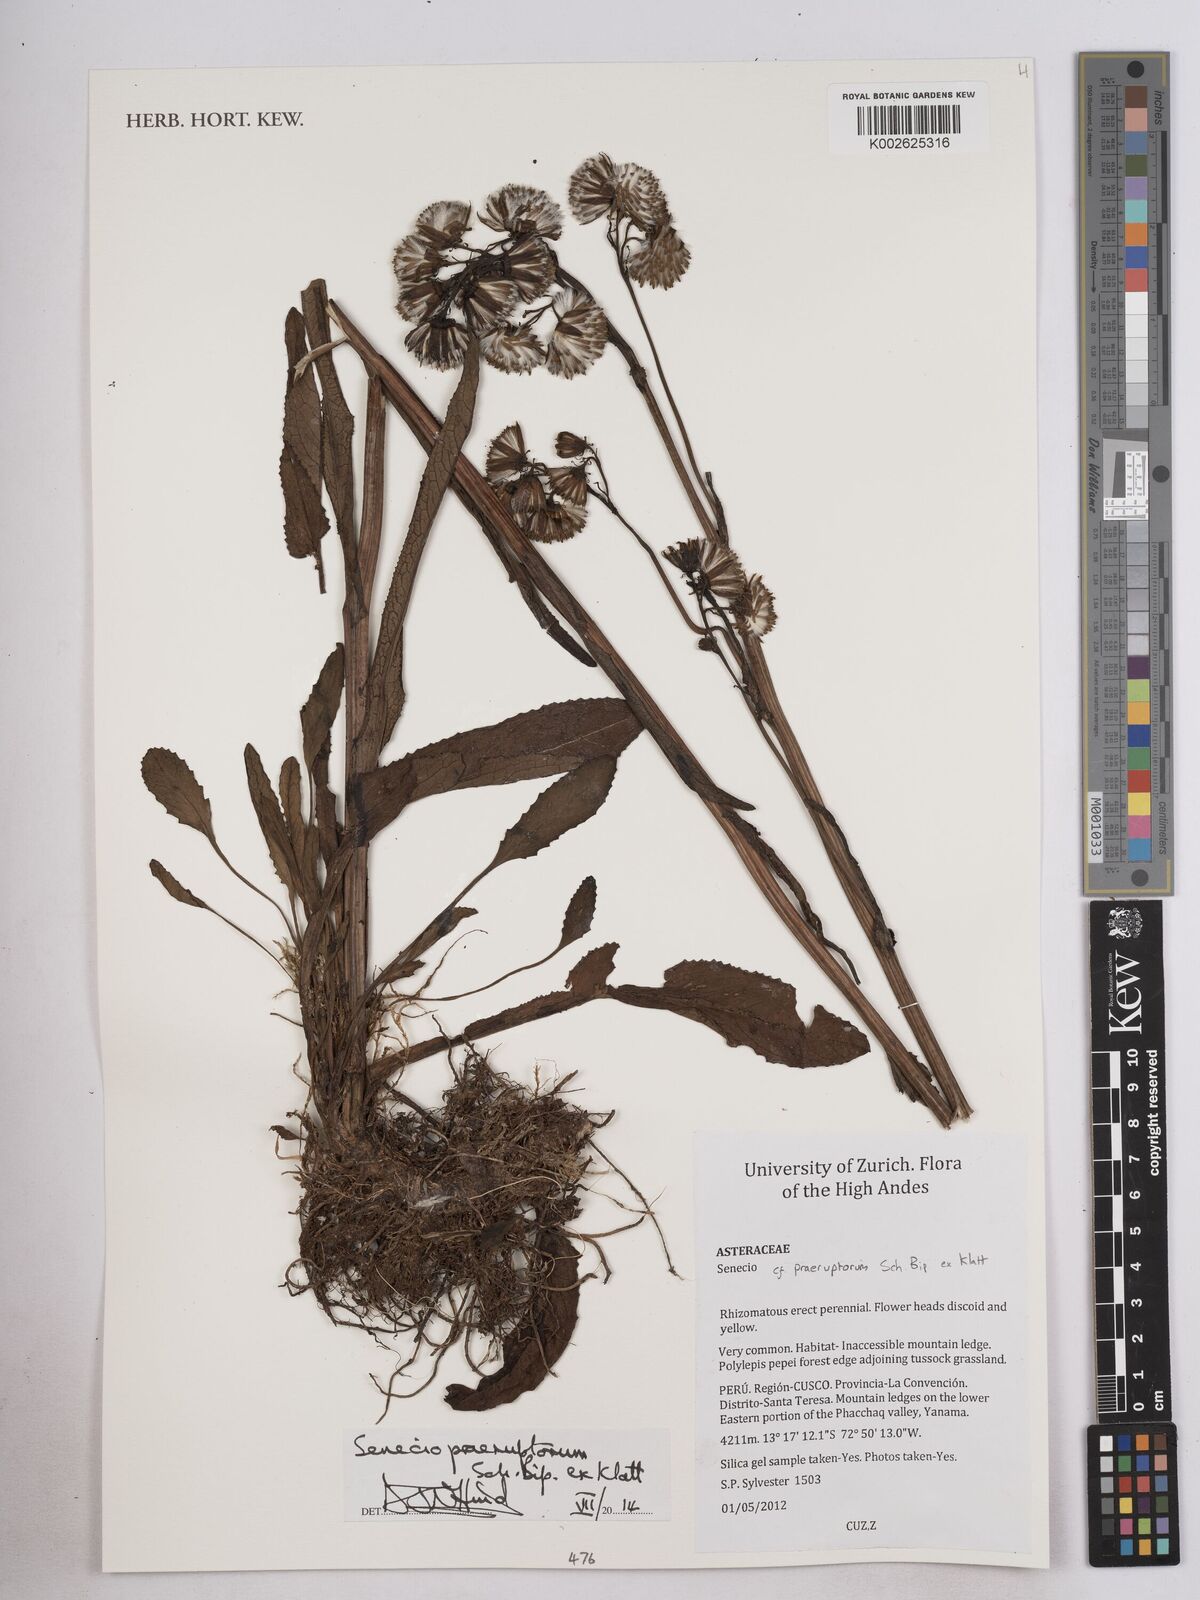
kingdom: Plantae
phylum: Tracheophyta
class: Magnoliopsida
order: Asterales
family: Asteraceae
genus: Senecio
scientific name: Senecio praeruptorum
